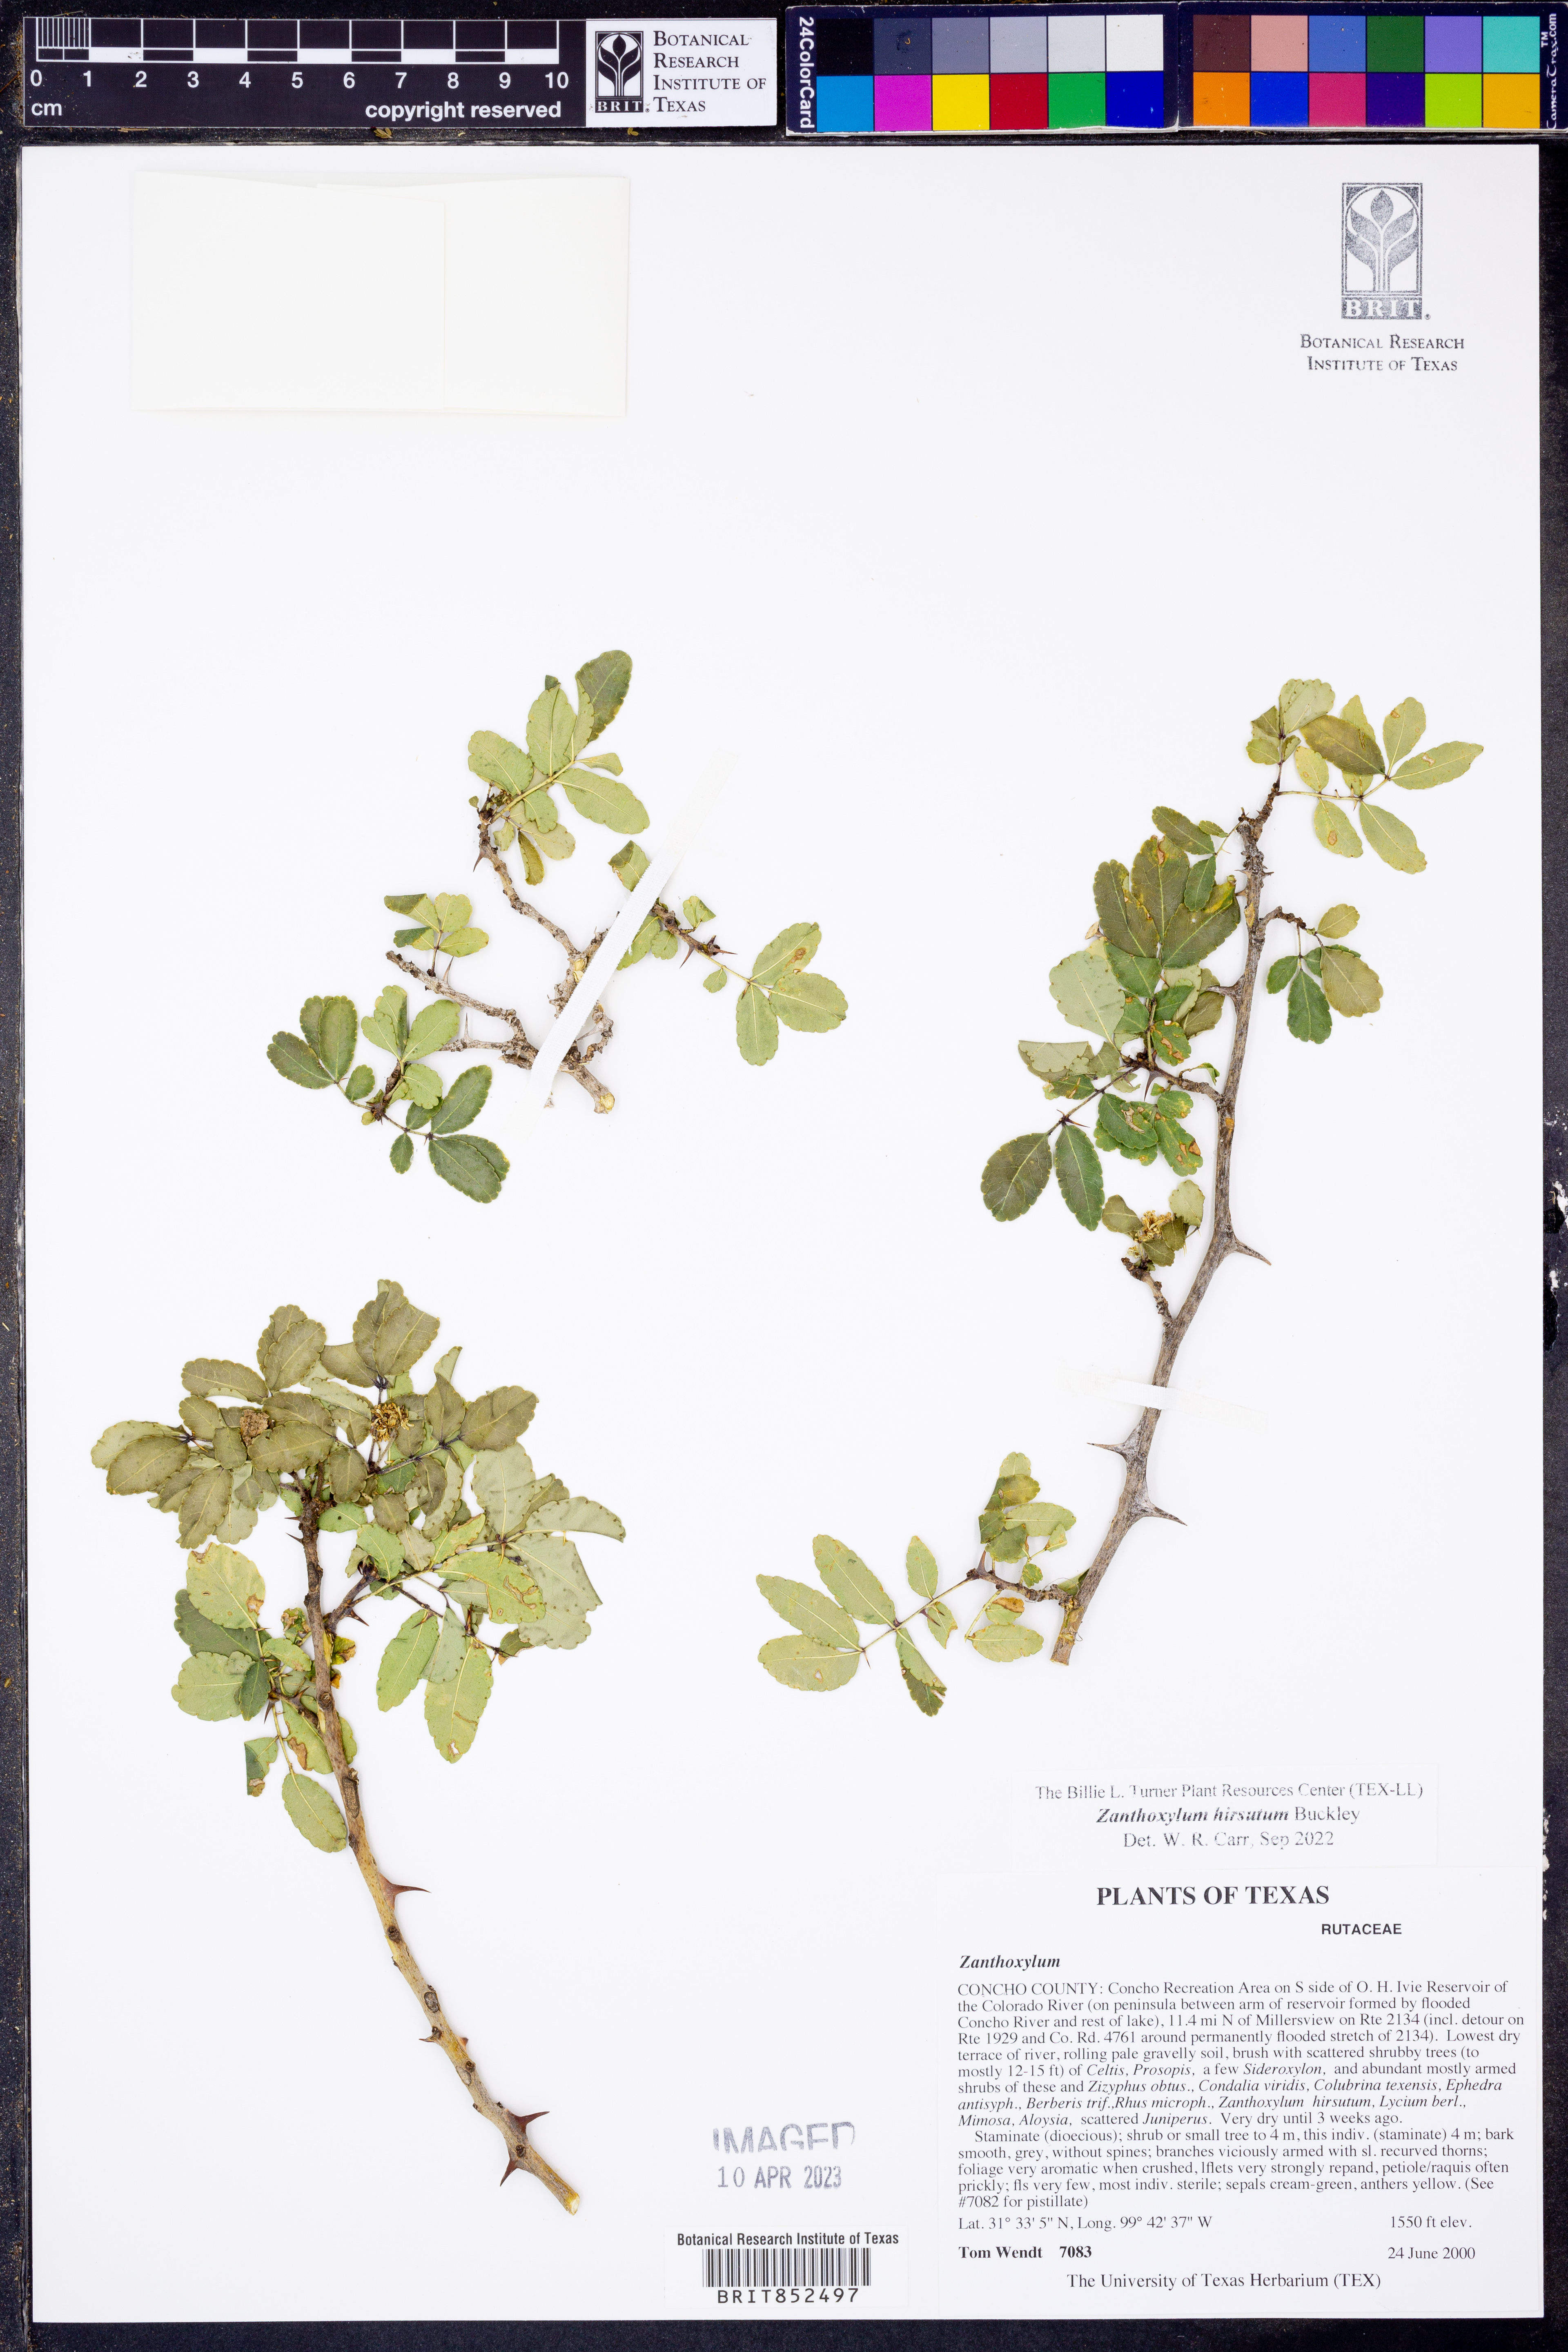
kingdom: Plantae
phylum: Tracheophyta
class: Magnoliopsida
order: Sapindales
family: Rutaceae
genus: Zanthoxylum
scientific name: Zanthoxylum clava-herculis
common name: Hercules'-club
